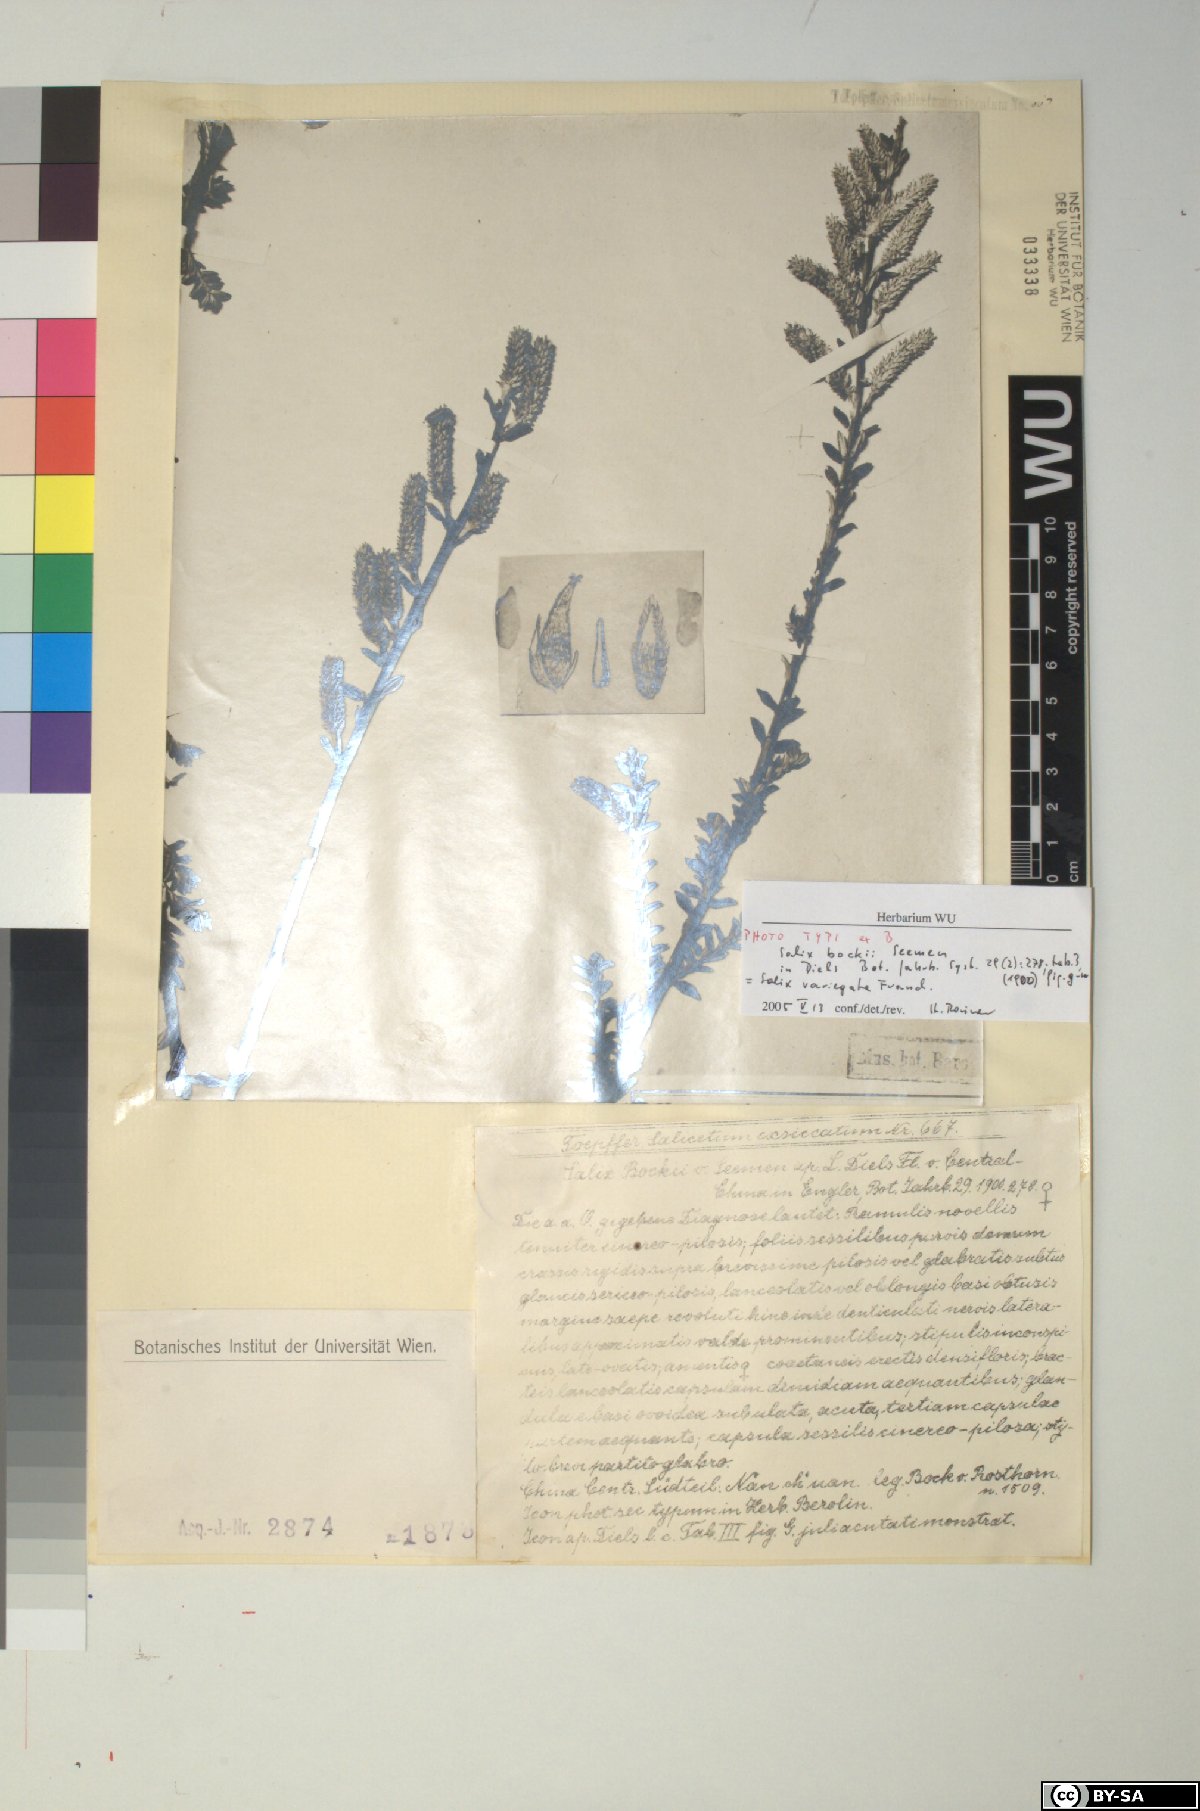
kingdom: Plantae
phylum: Tracheophyta
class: Magnoliopsida
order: Malpighiales
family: Salicaceae
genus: Salix
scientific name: Salix variegata
